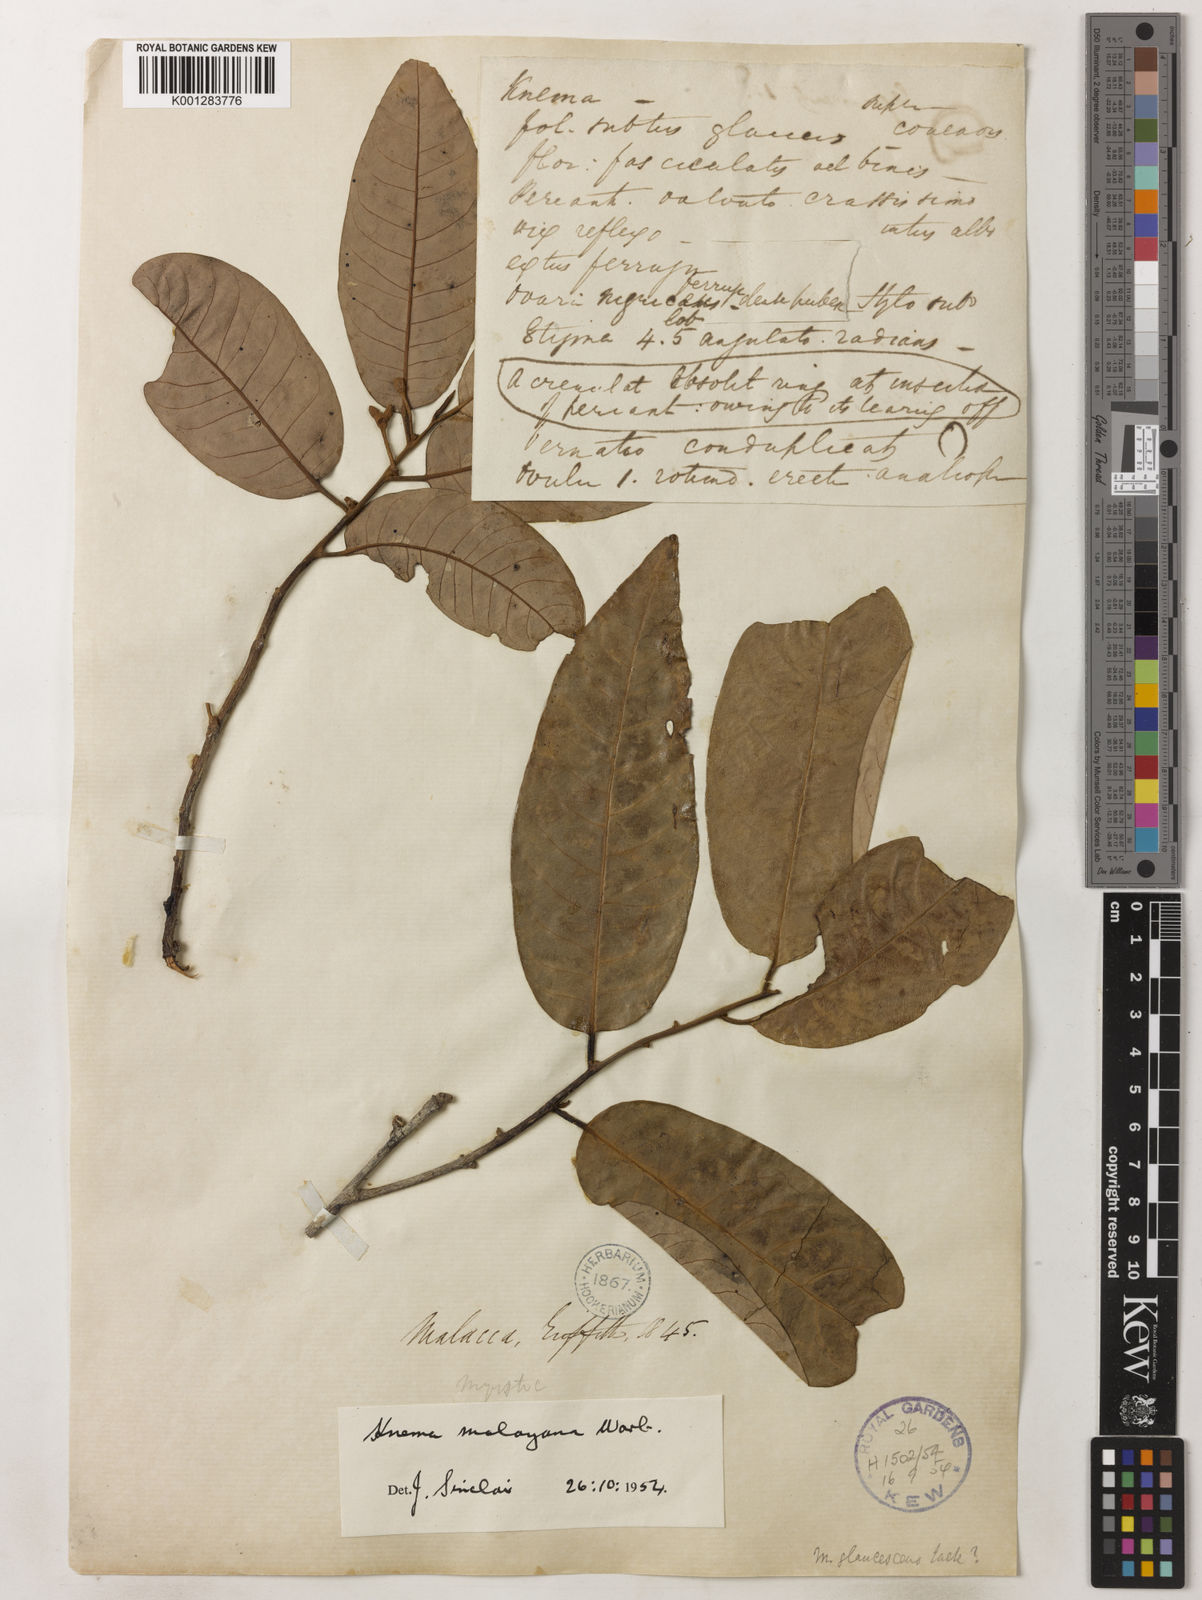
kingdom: Plantae
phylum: Tracheophyta
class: Magnoliopsida
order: Magnoliales
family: Myristicaceae
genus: Knema
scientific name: Knema malayana
